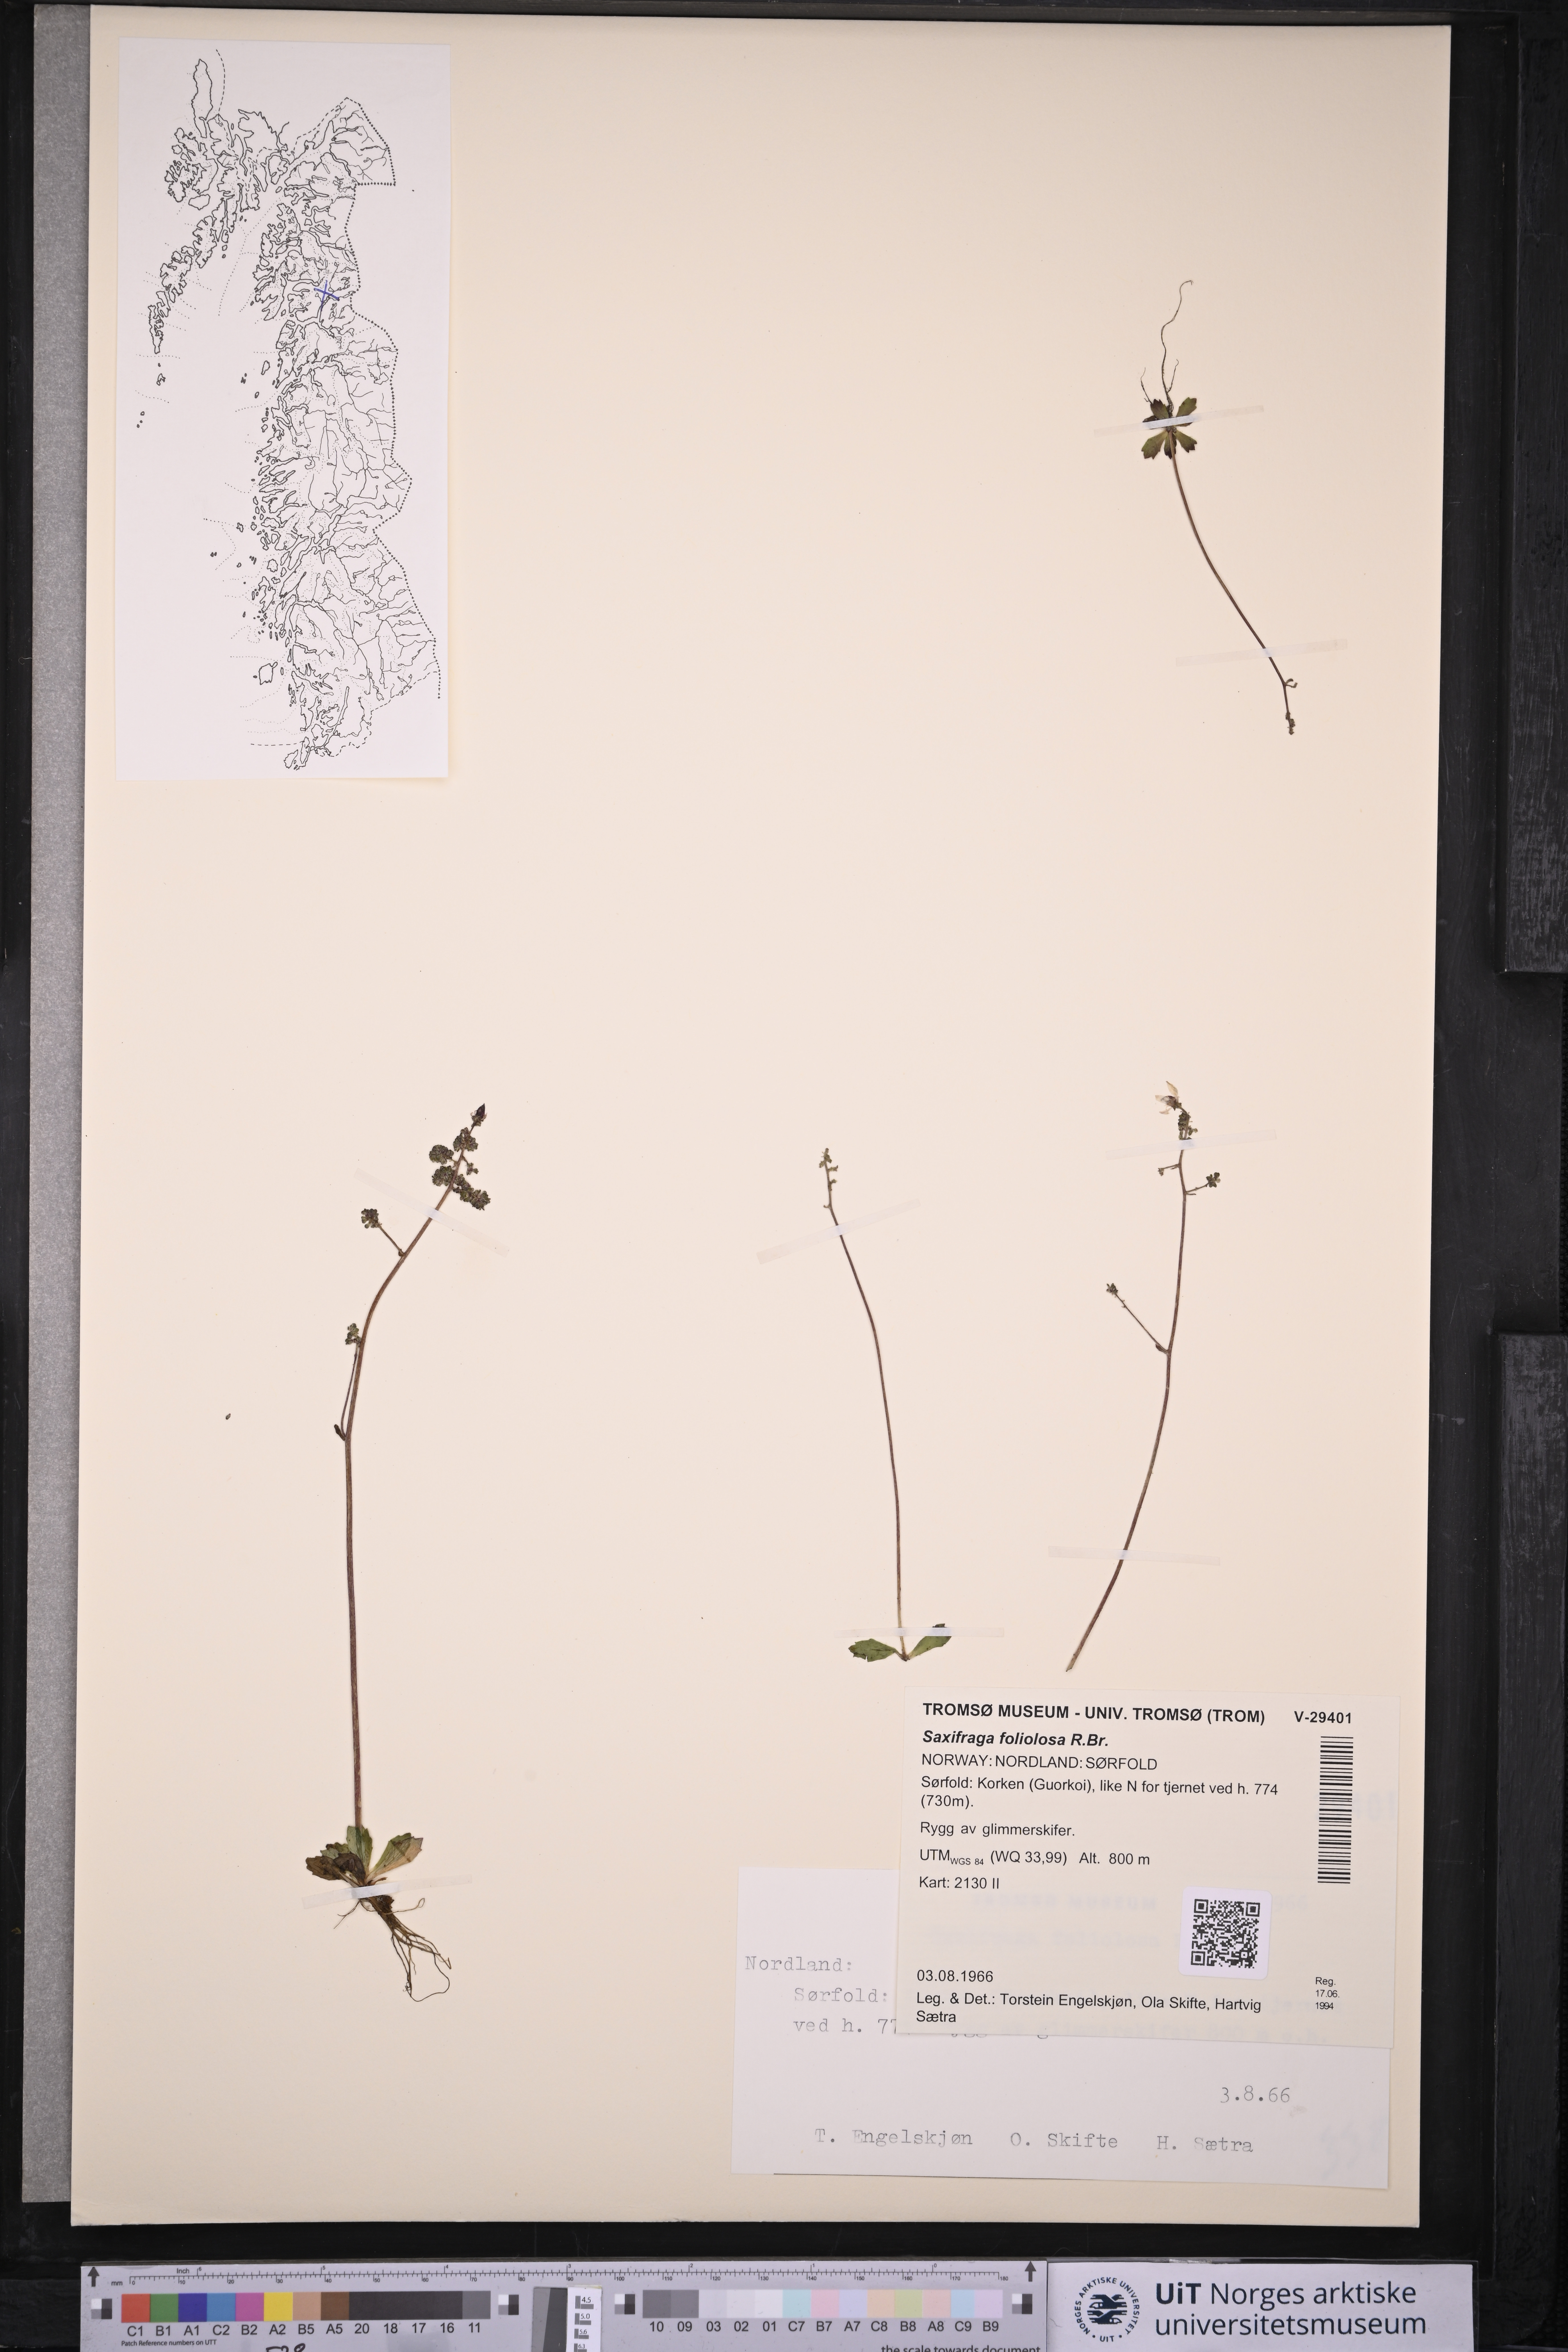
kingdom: Plantae
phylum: Tracheophyta
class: Magnoliopsida
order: Saxifragales
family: Saxifragaceae
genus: Micranthes
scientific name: Micranthes foliolosa
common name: Leafystem saxifrage
